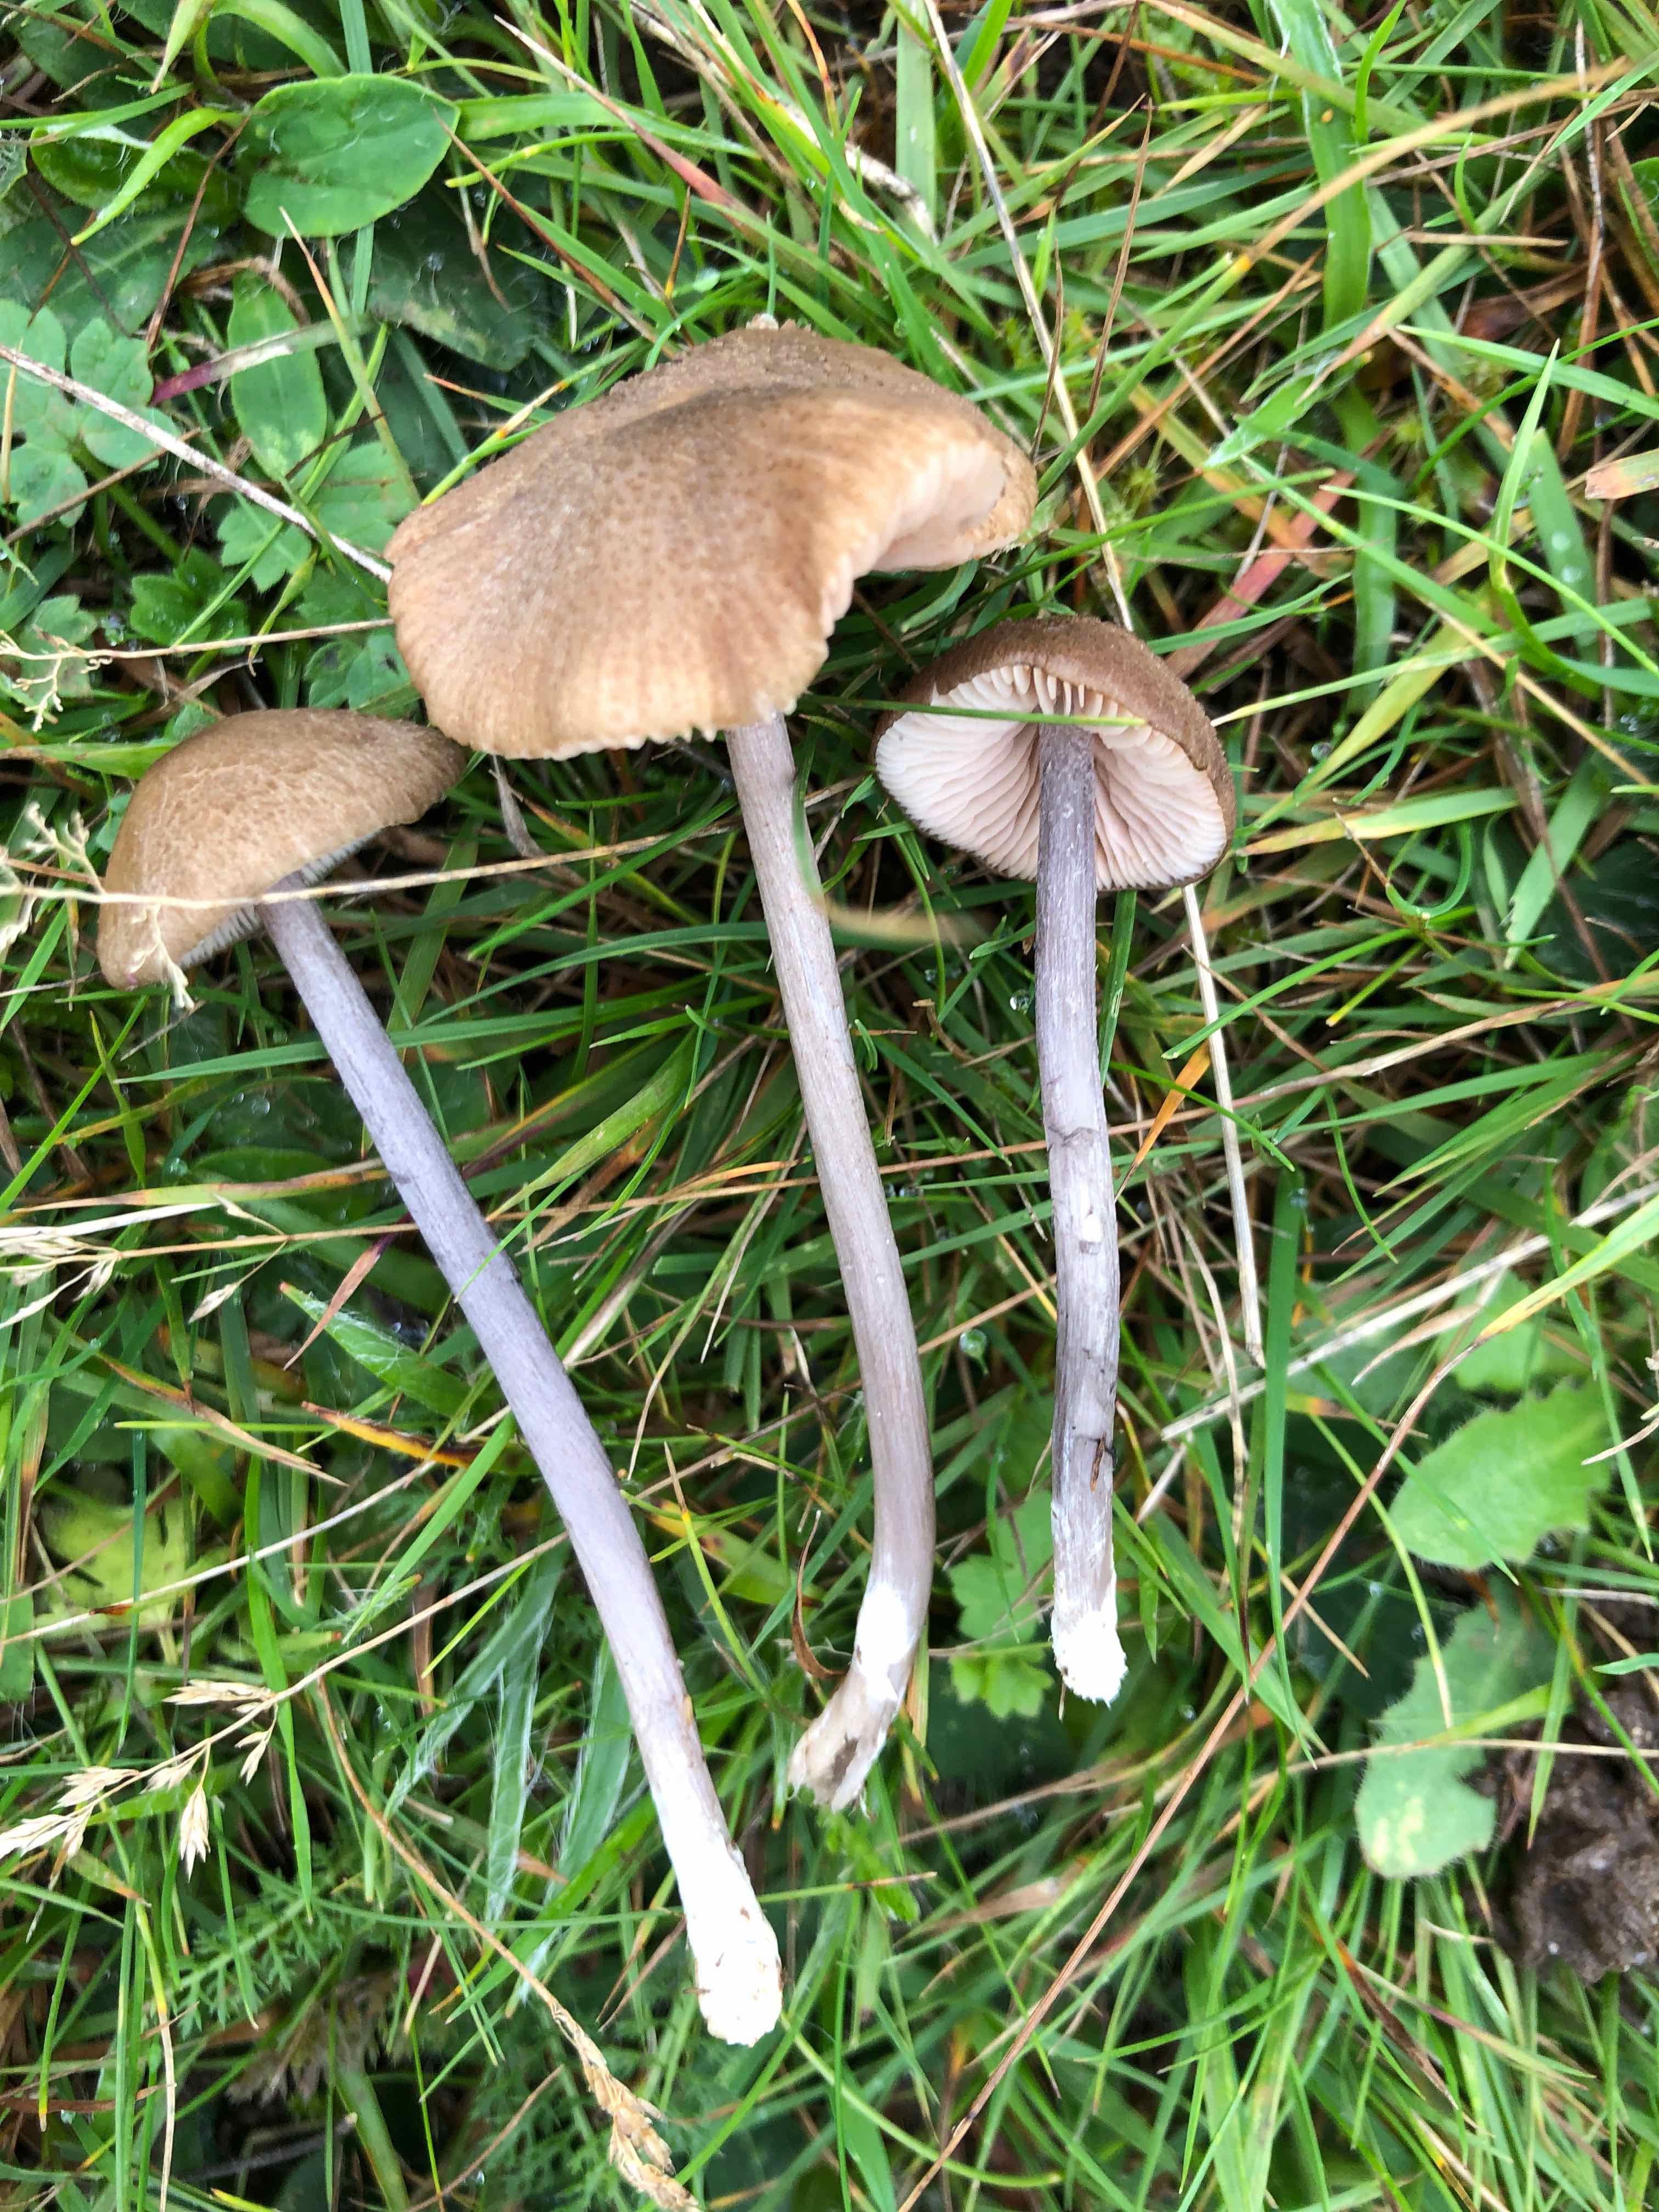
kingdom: Fungi
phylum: Basidiomycota
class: Agaricomycetes
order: Agaricales
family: Entolomataceae
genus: Entoloma
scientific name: Entoloma griseocyaneum
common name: gråblå rødblad
